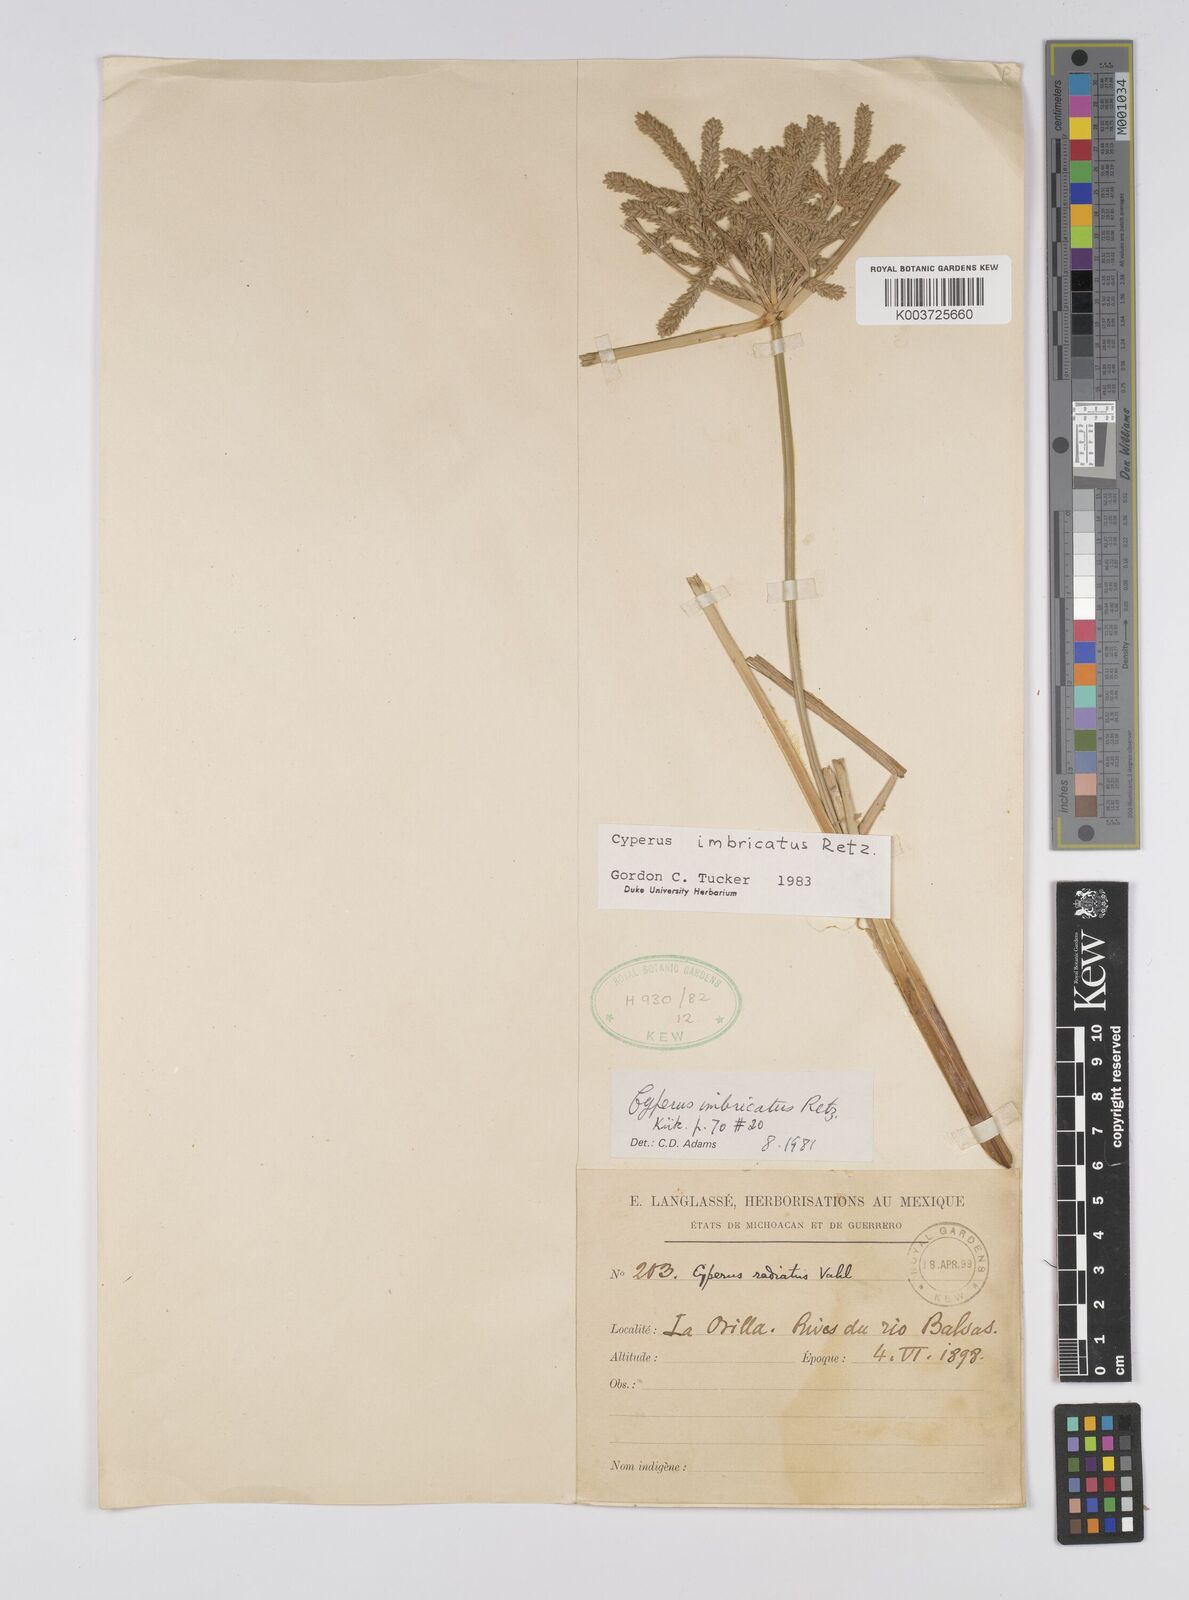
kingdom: Plantae
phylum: Tracheophyta
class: Liliopsida
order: Poales
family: Cyperaceae
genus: Cyperus
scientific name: Cyperus imbricatus
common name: Shingle flatsedge
